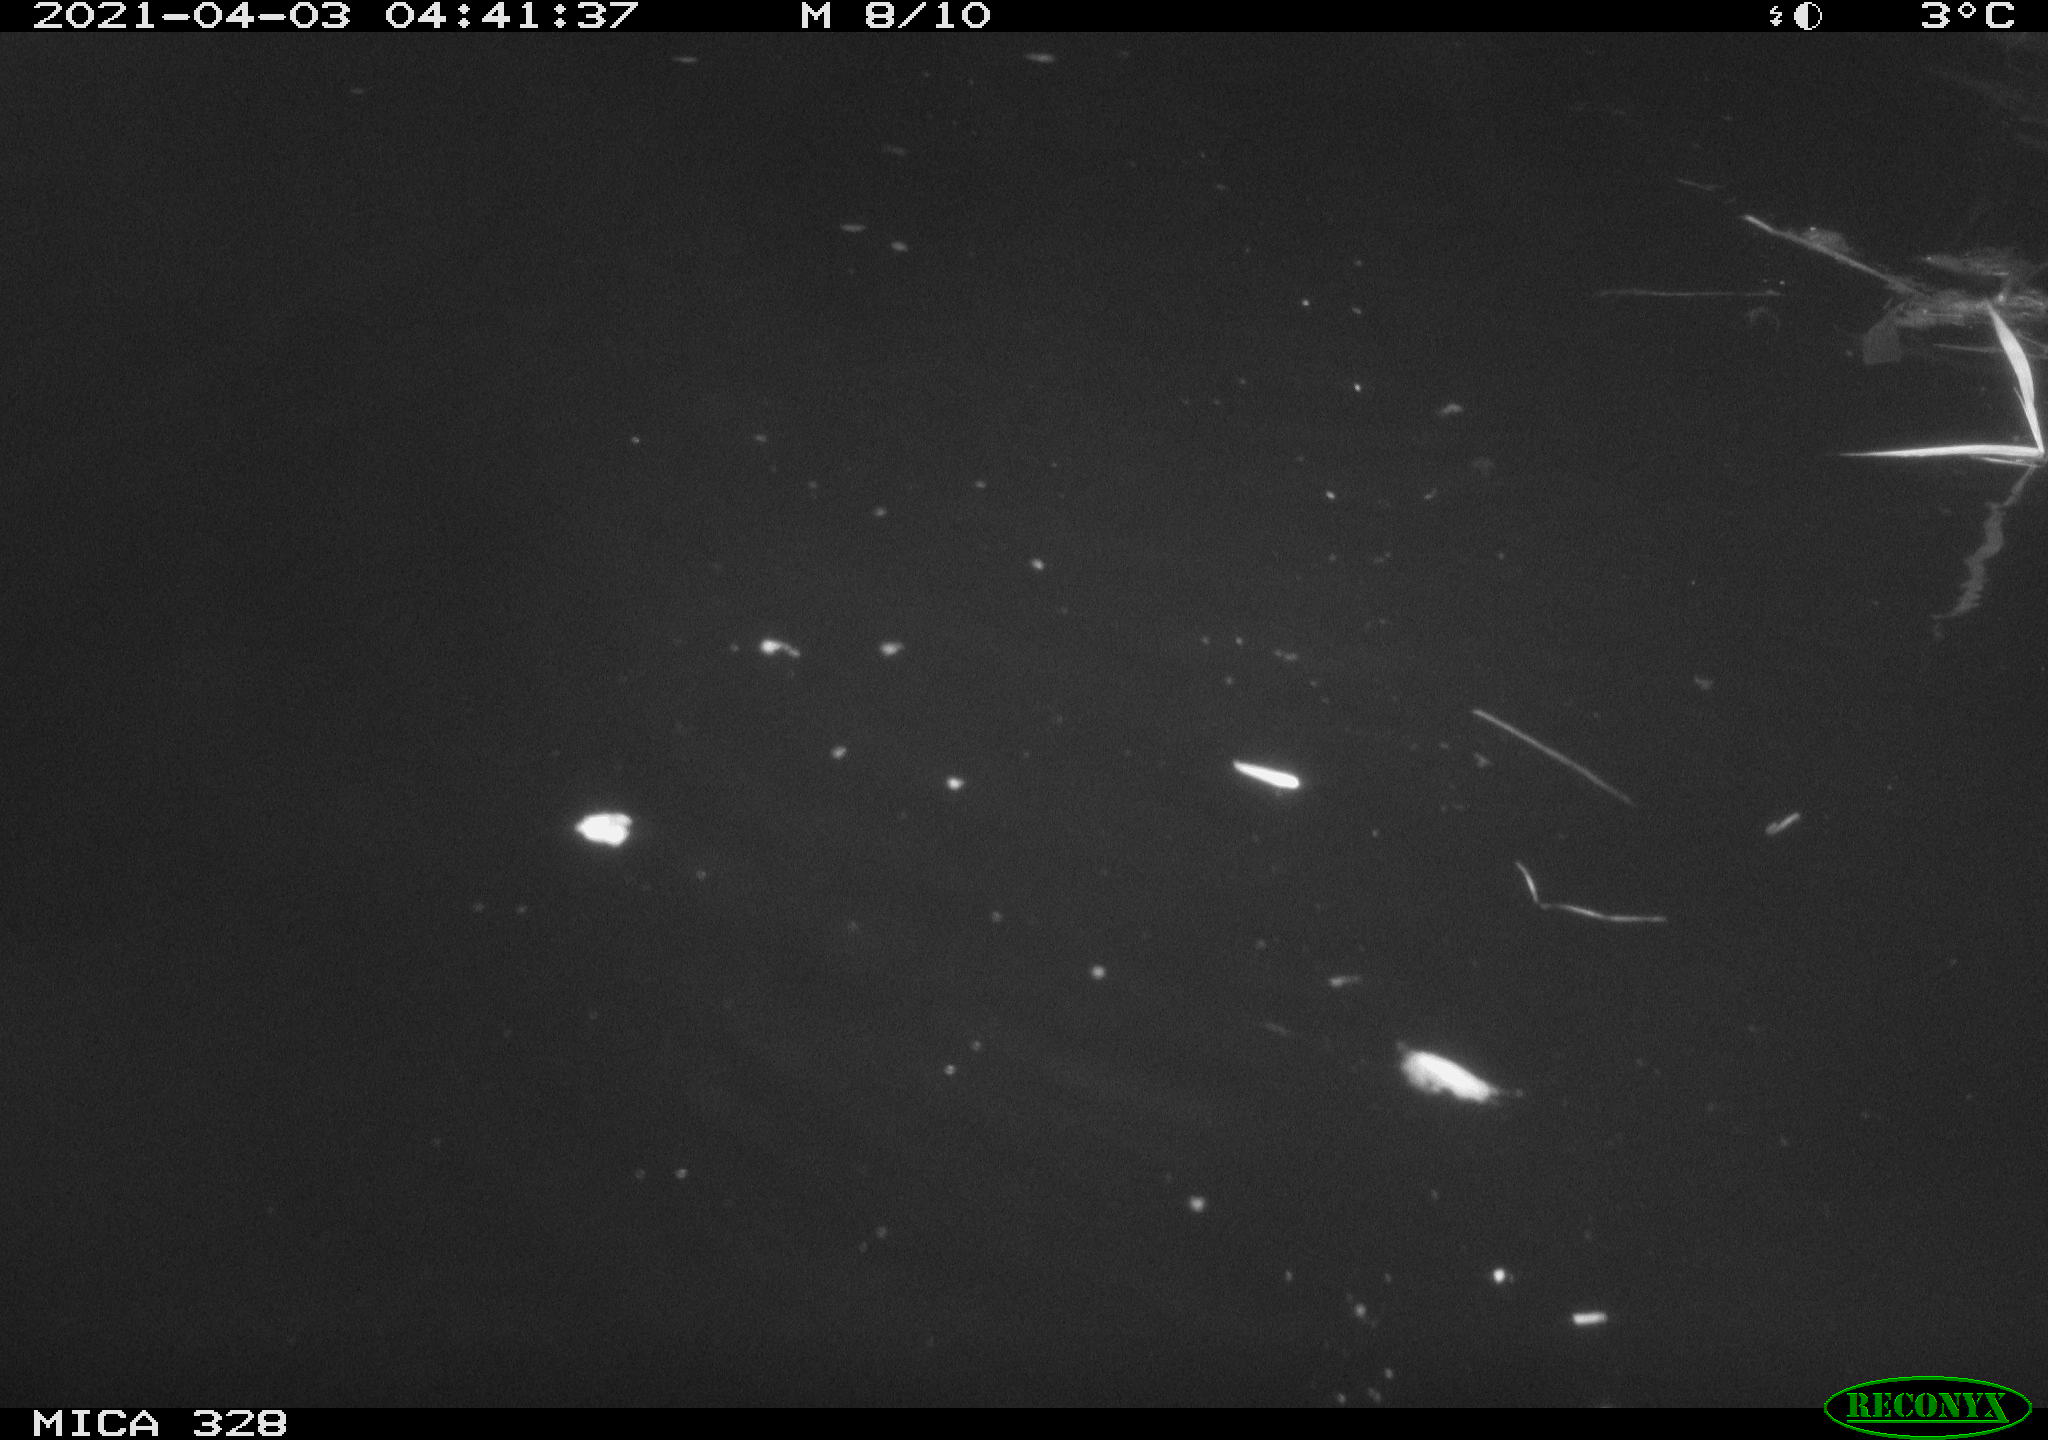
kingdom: Animalia
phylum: Chordata
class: Mammalia
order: Rodentia
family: Cricetidae
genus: Ondatra
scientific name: Ondatra zibethicus
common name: Muskrat
